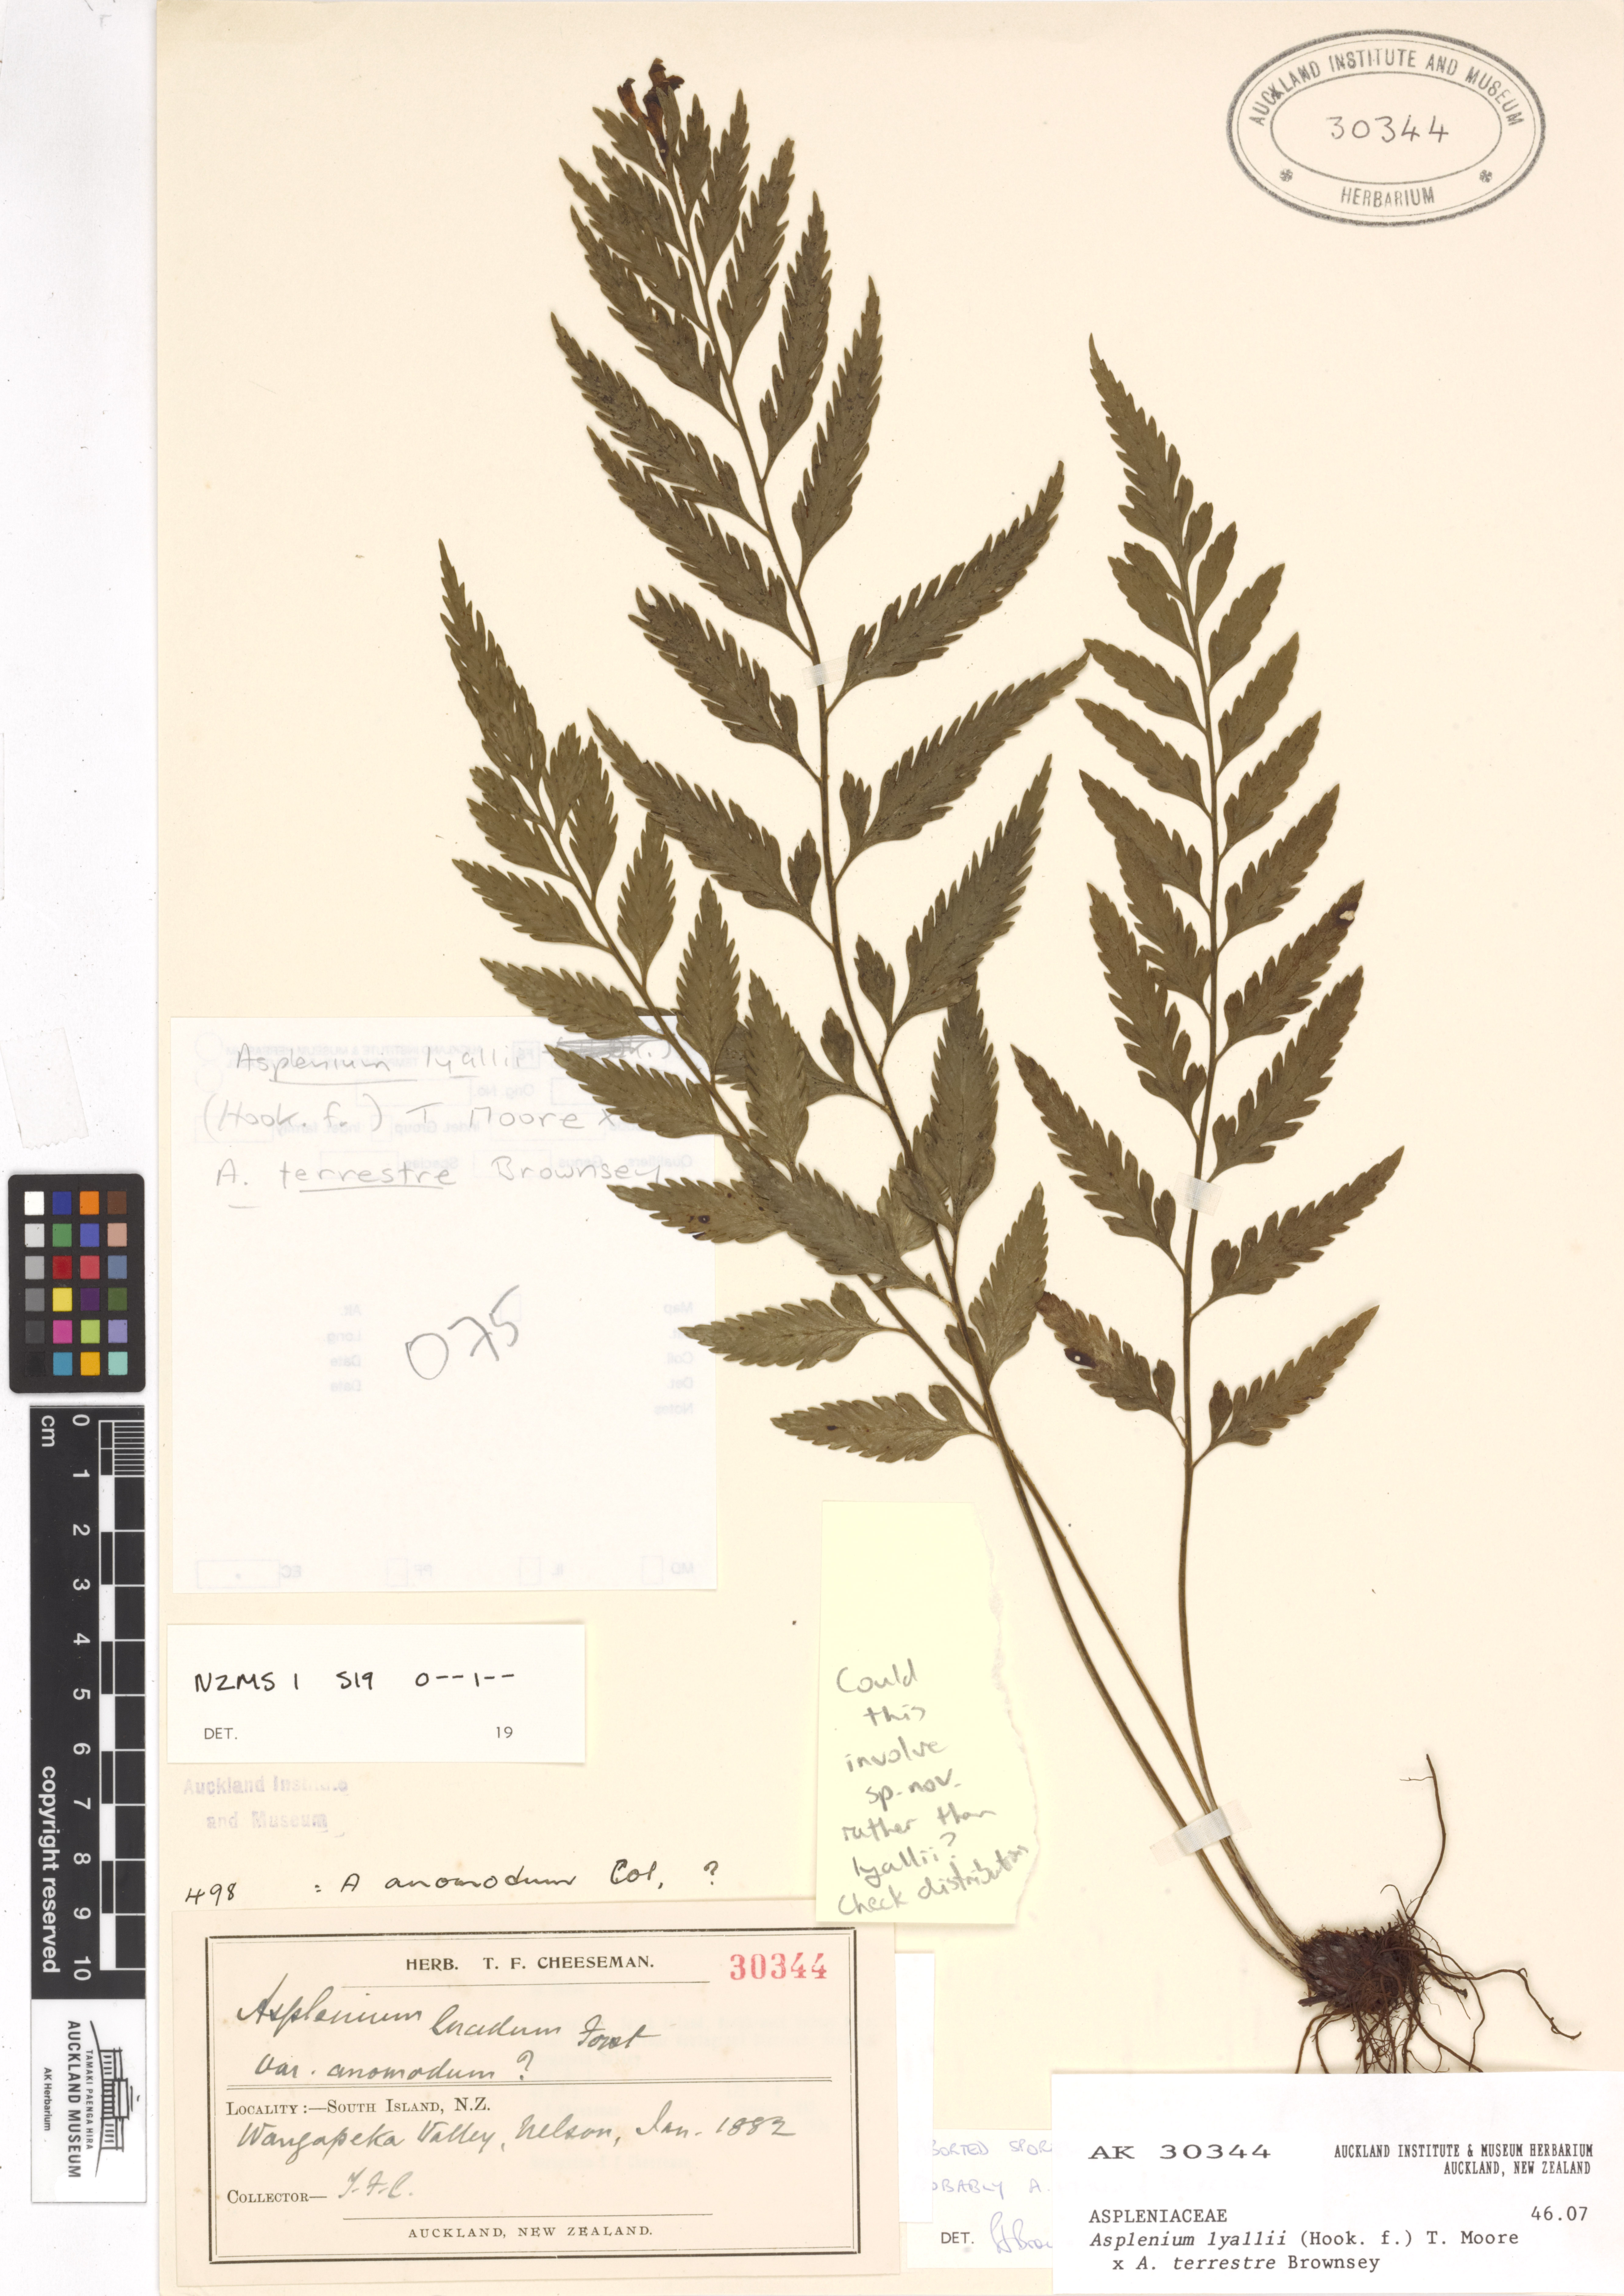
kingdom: Plantae
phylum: Tracheophyta
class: Polypodiopsida
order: Polypodiales
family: Aspleniaceae
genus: Asplenium
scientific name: Asplenium
